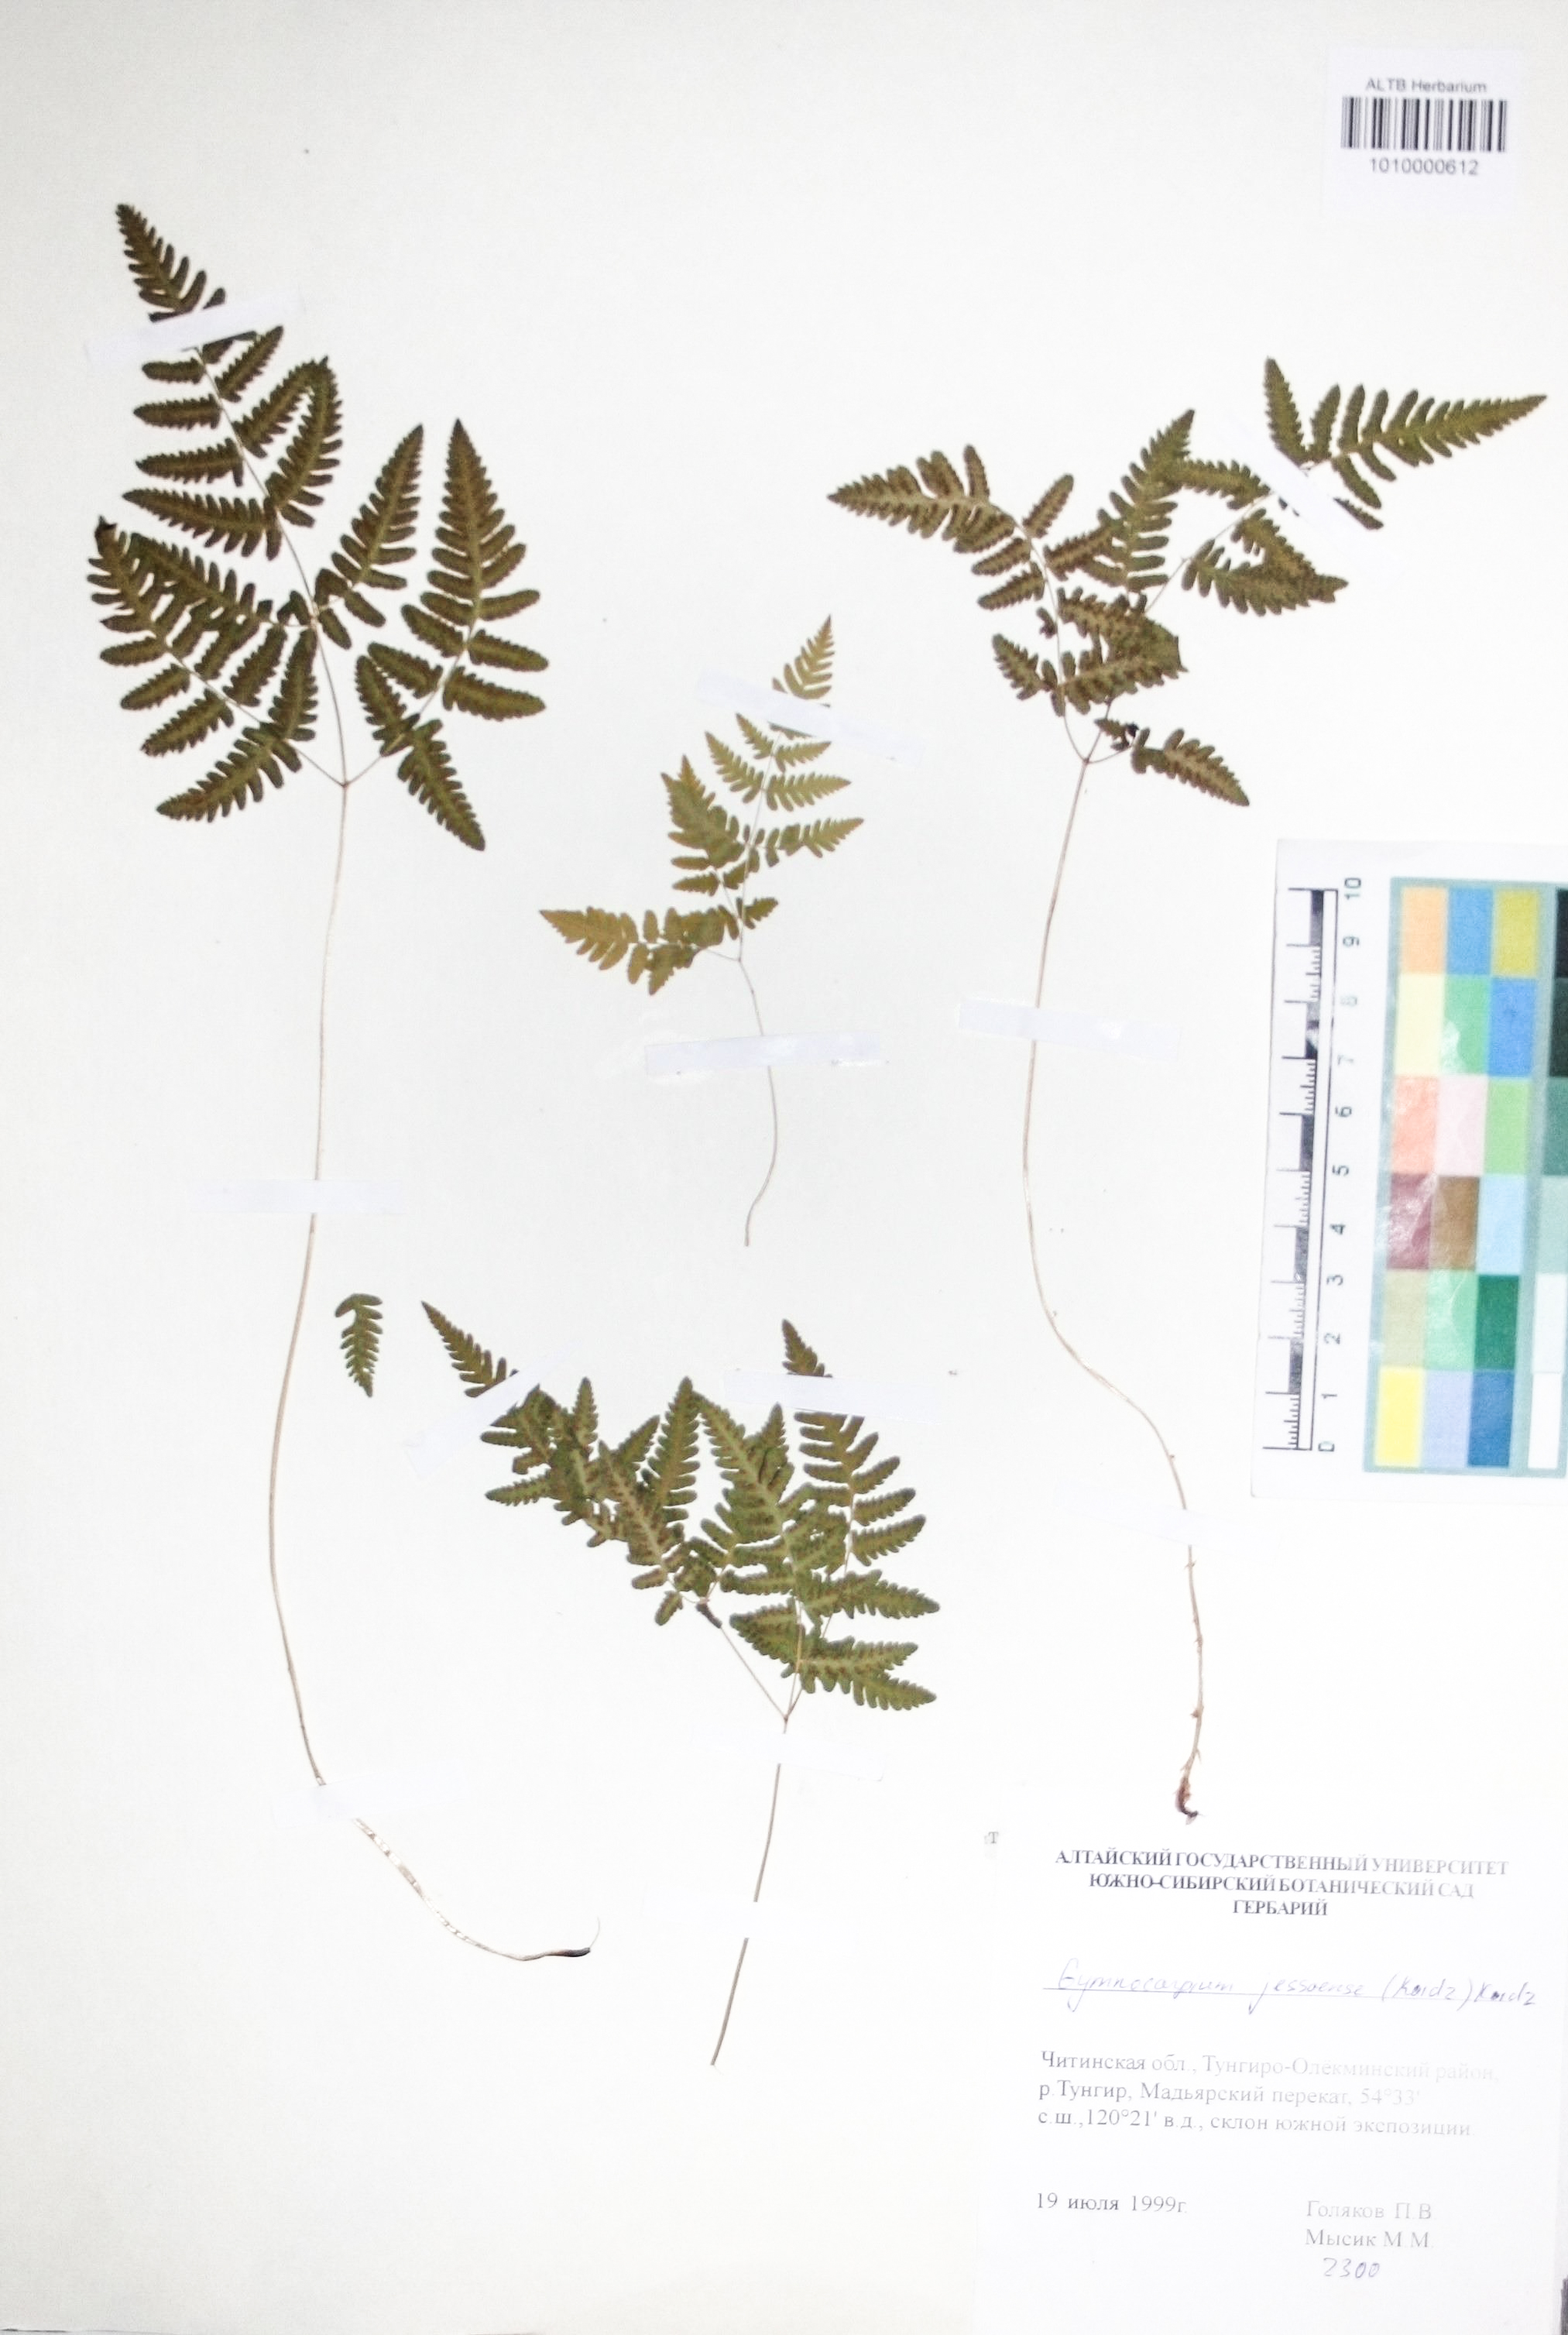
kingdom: Plantae
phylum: Tracheophyta
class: Polypodiopsida
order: Polypodiales
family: Cystopteridaceae
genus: Gymnocarpium
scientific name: Gymnocarpium jessoense
